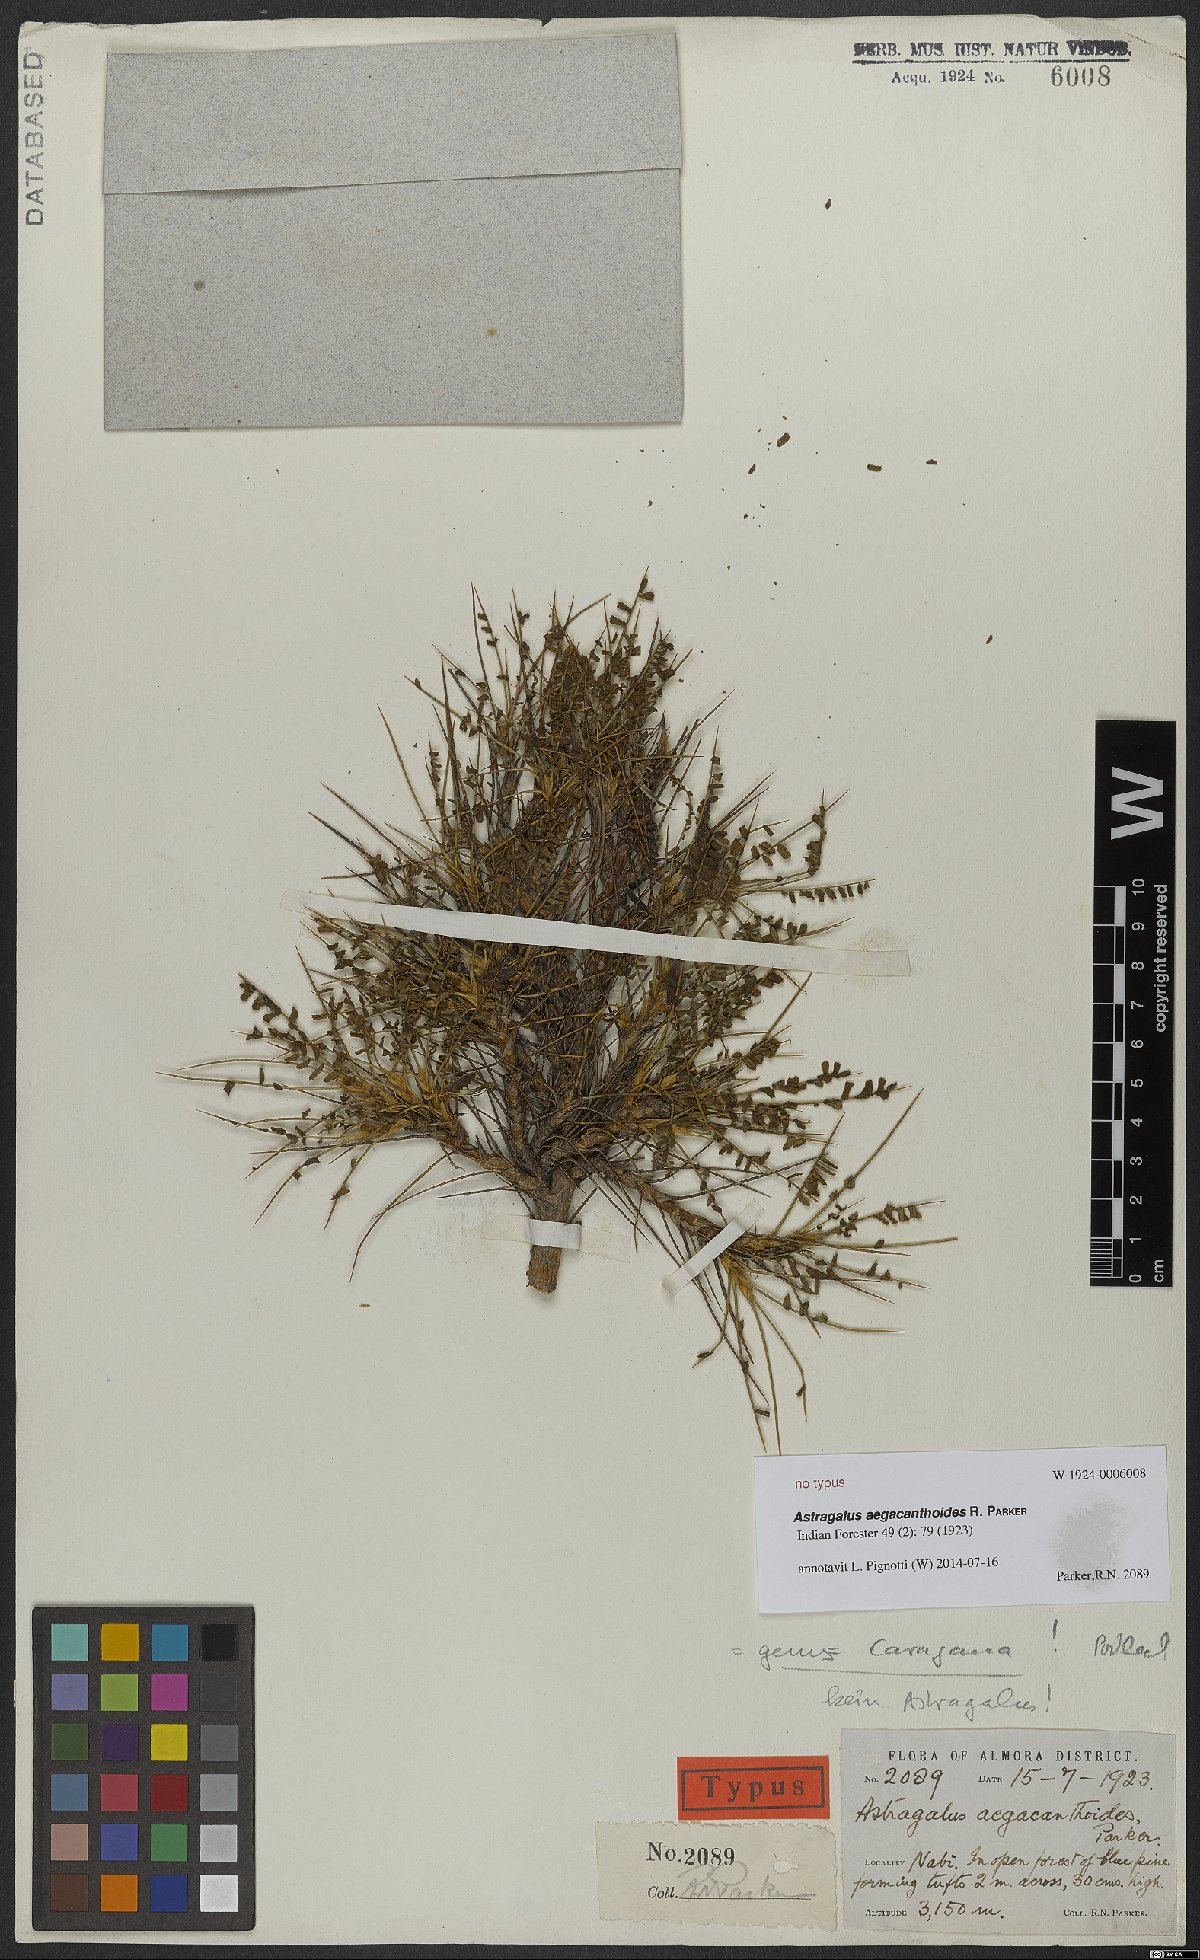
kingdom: Plantae
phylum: Tracheophyta
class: Magnoliopsida
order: Fabales
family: Fabaceae
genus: Caragana
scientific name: Caragana
